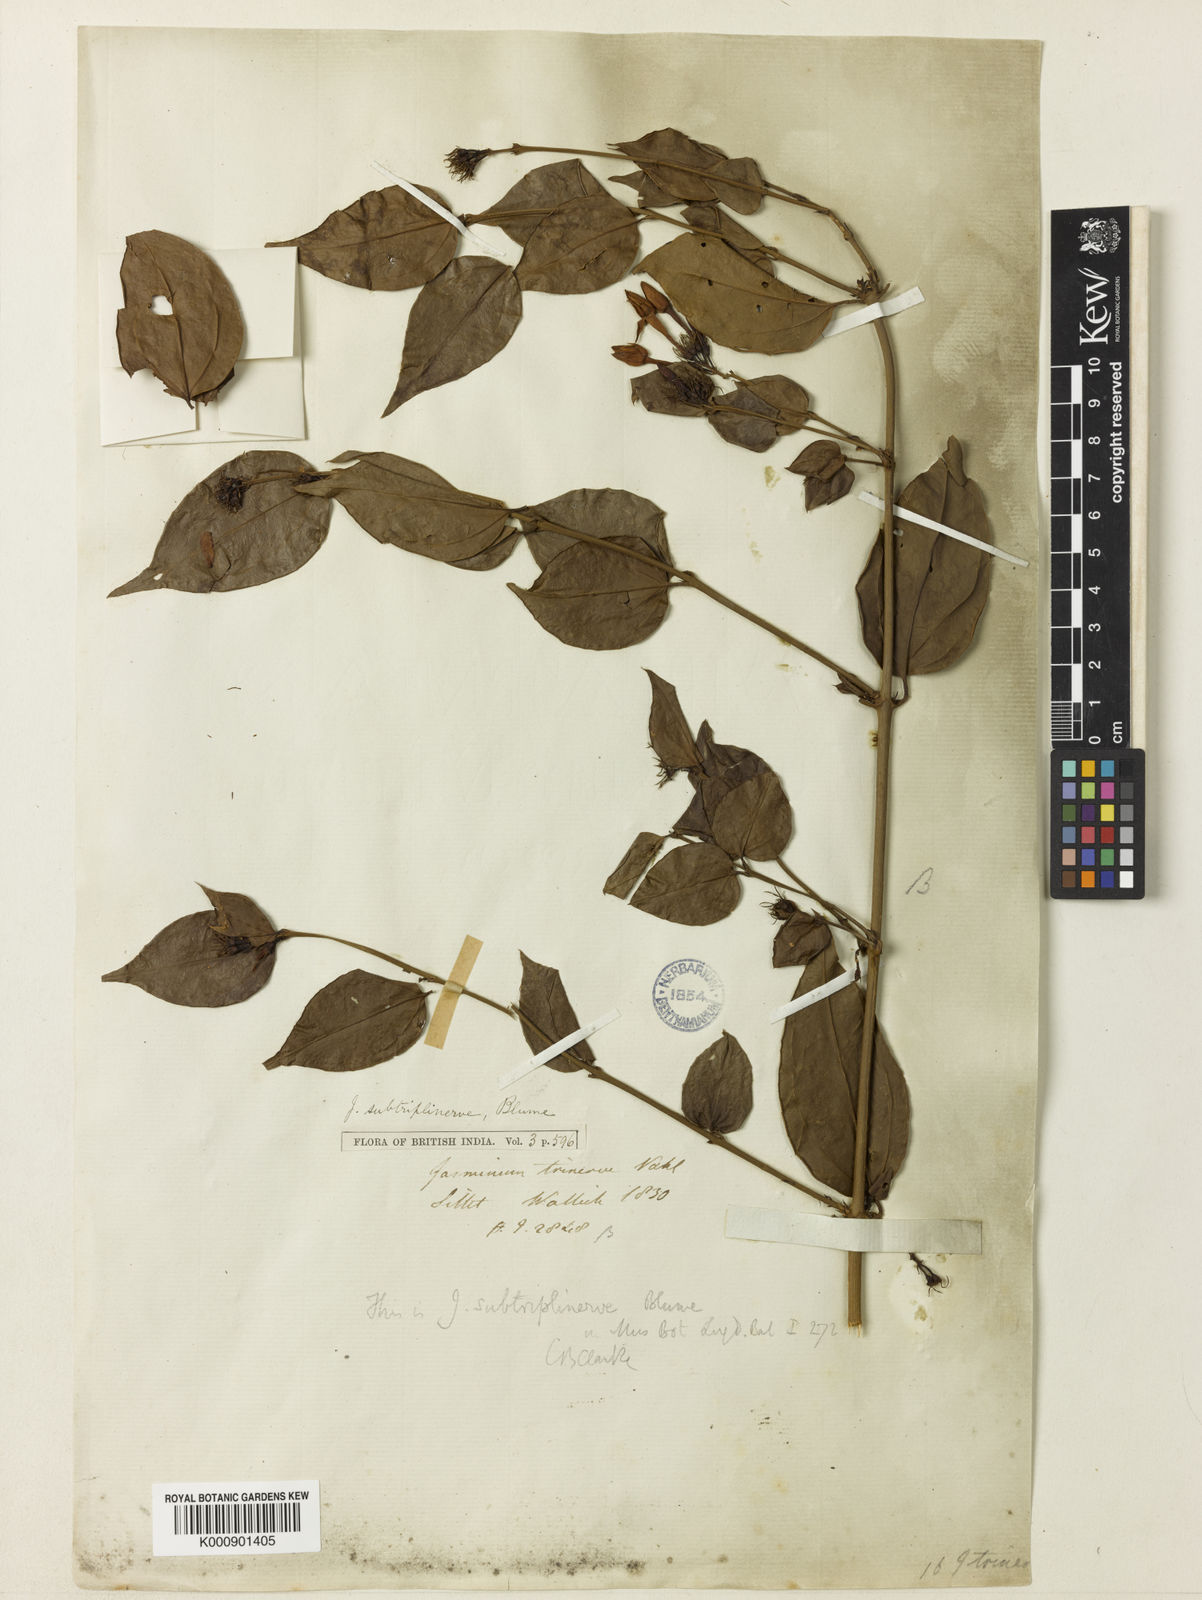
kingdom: Plantae
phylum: Tracheophyta
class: Magnoliopsida
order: Lamiales
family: Oleaceae
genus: Jasminum
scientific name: Jasminum nervosum
